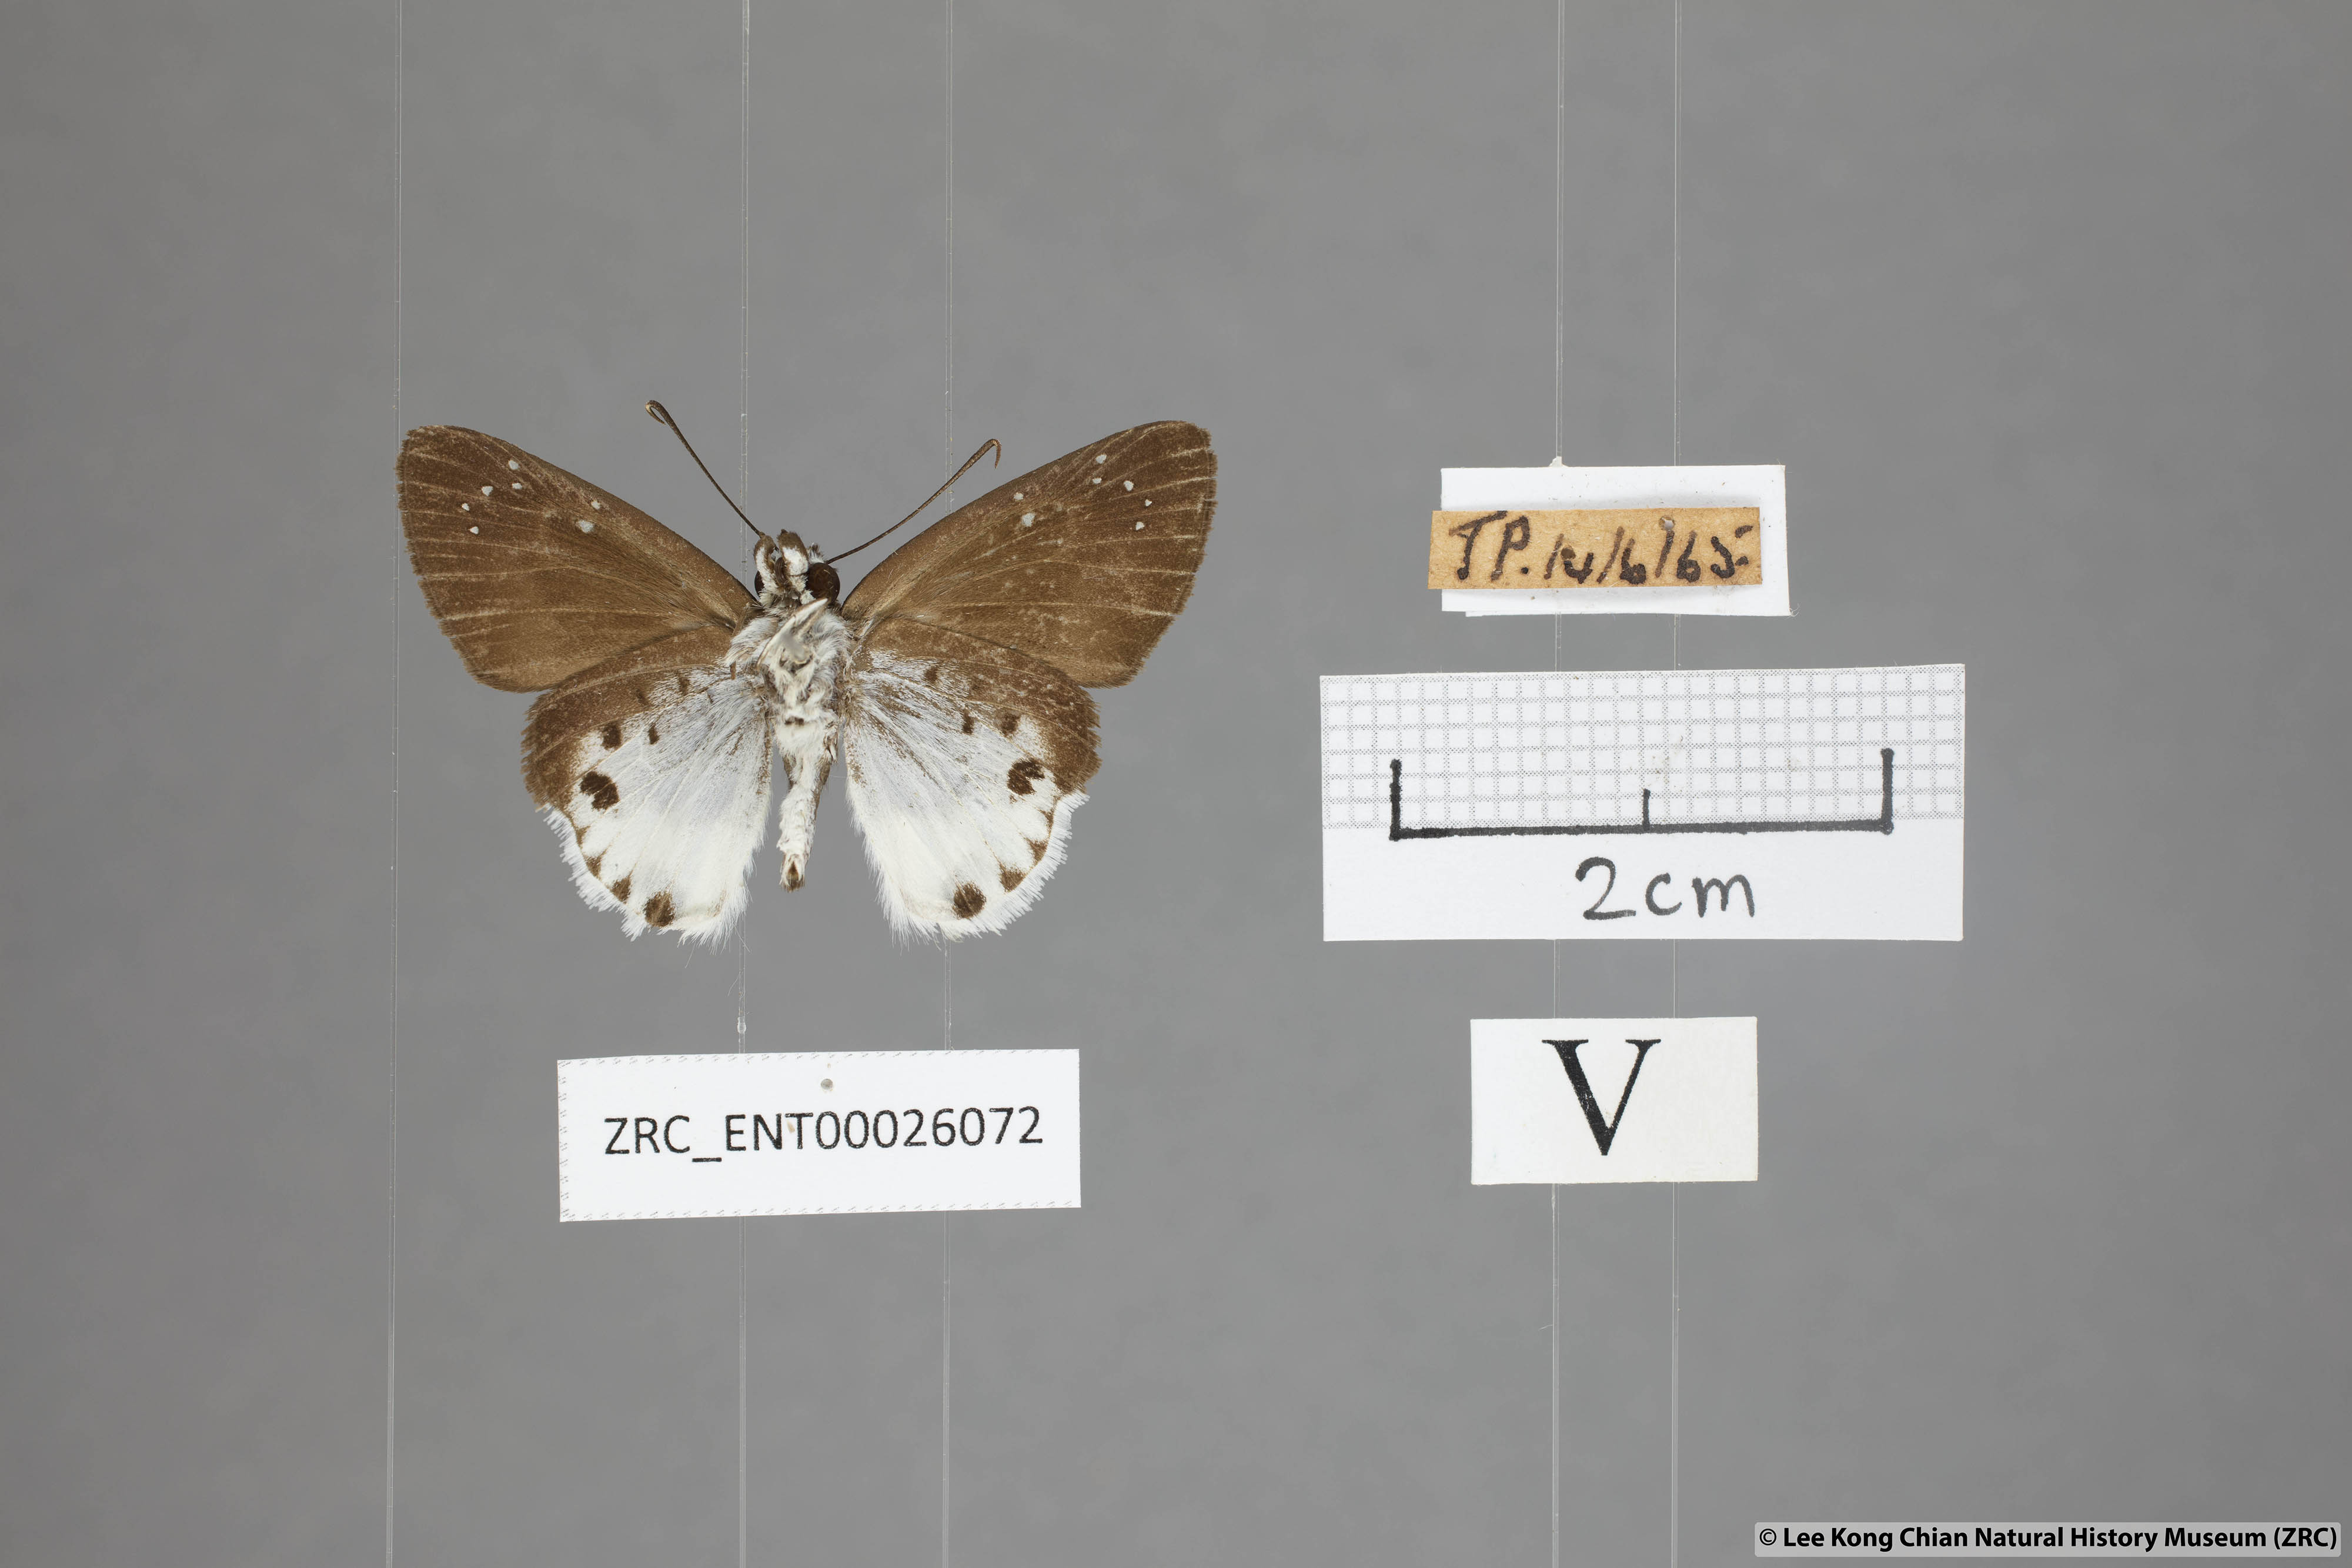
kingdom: Animalia
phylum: Arthropoda
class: Insecta
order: Lepidoptera
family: Hesperiidae
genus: Tagiades
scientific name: Tagiades waterstradti
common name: Waterstradt snow flat
